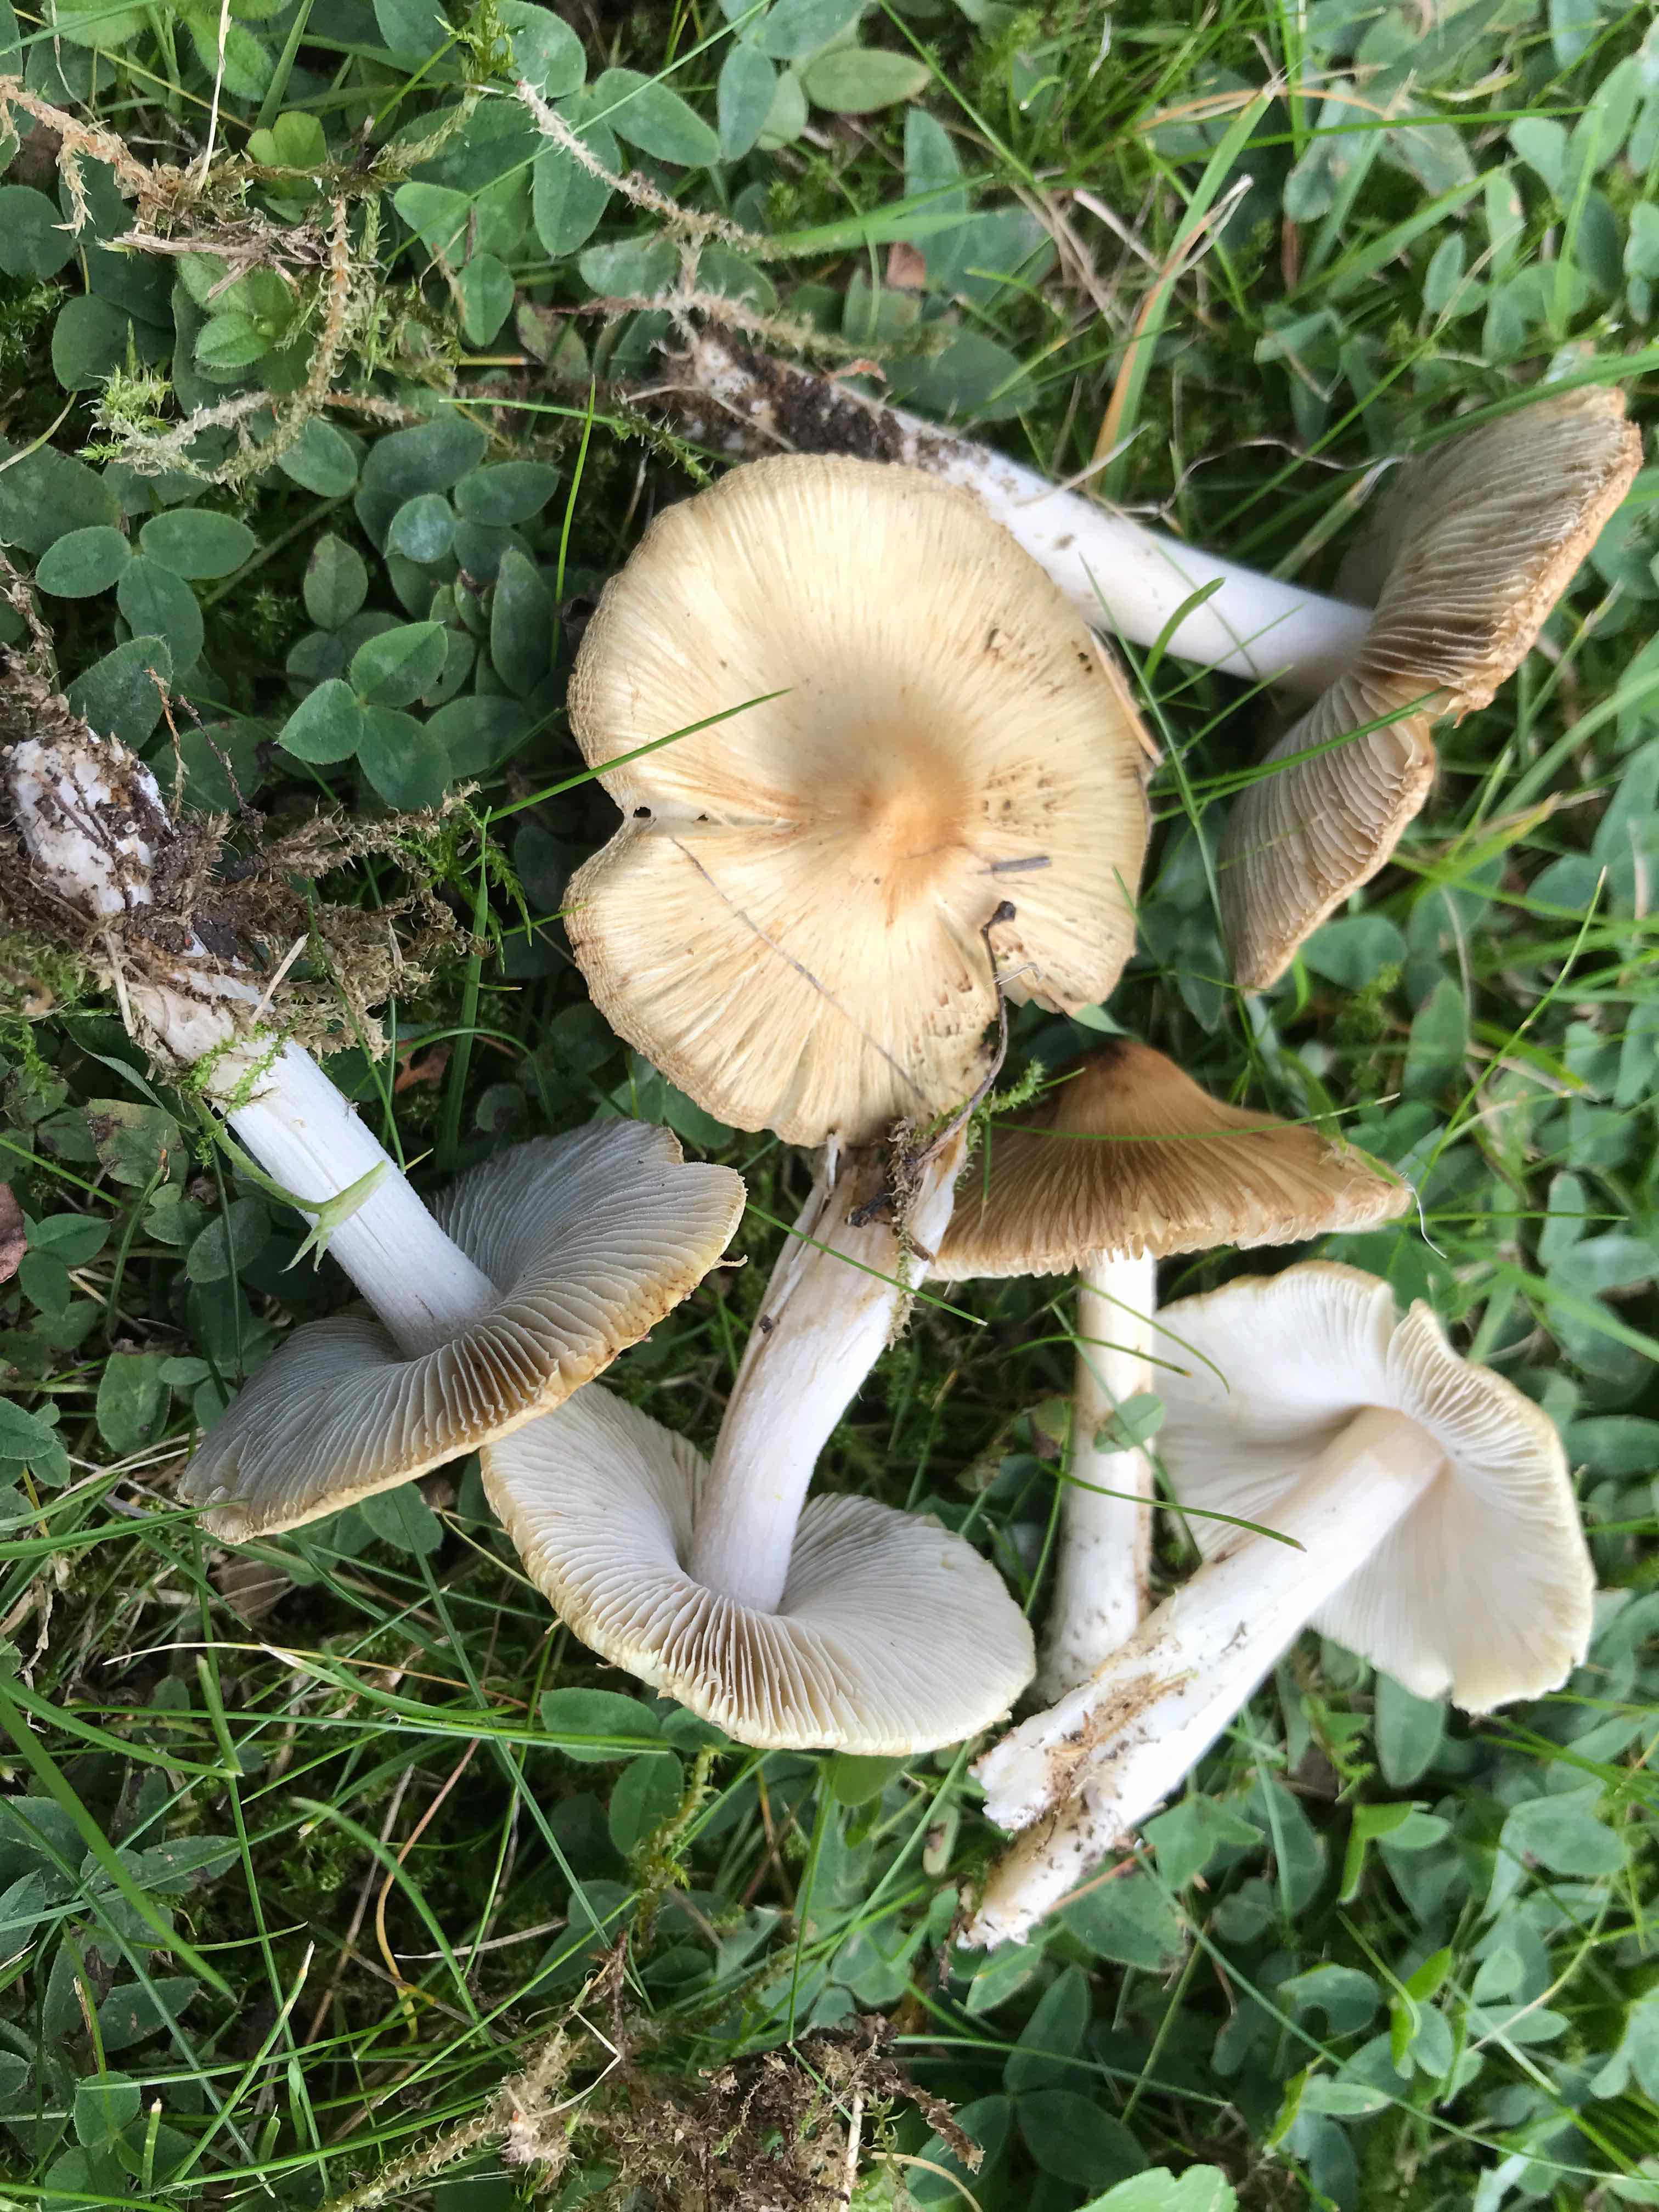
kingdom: Fungi
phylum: Basidiomycota
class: Agaricomycetes
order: Agaricales
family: Inocybaceae
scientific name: Inocybaceae
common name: trævlhatfamilien
